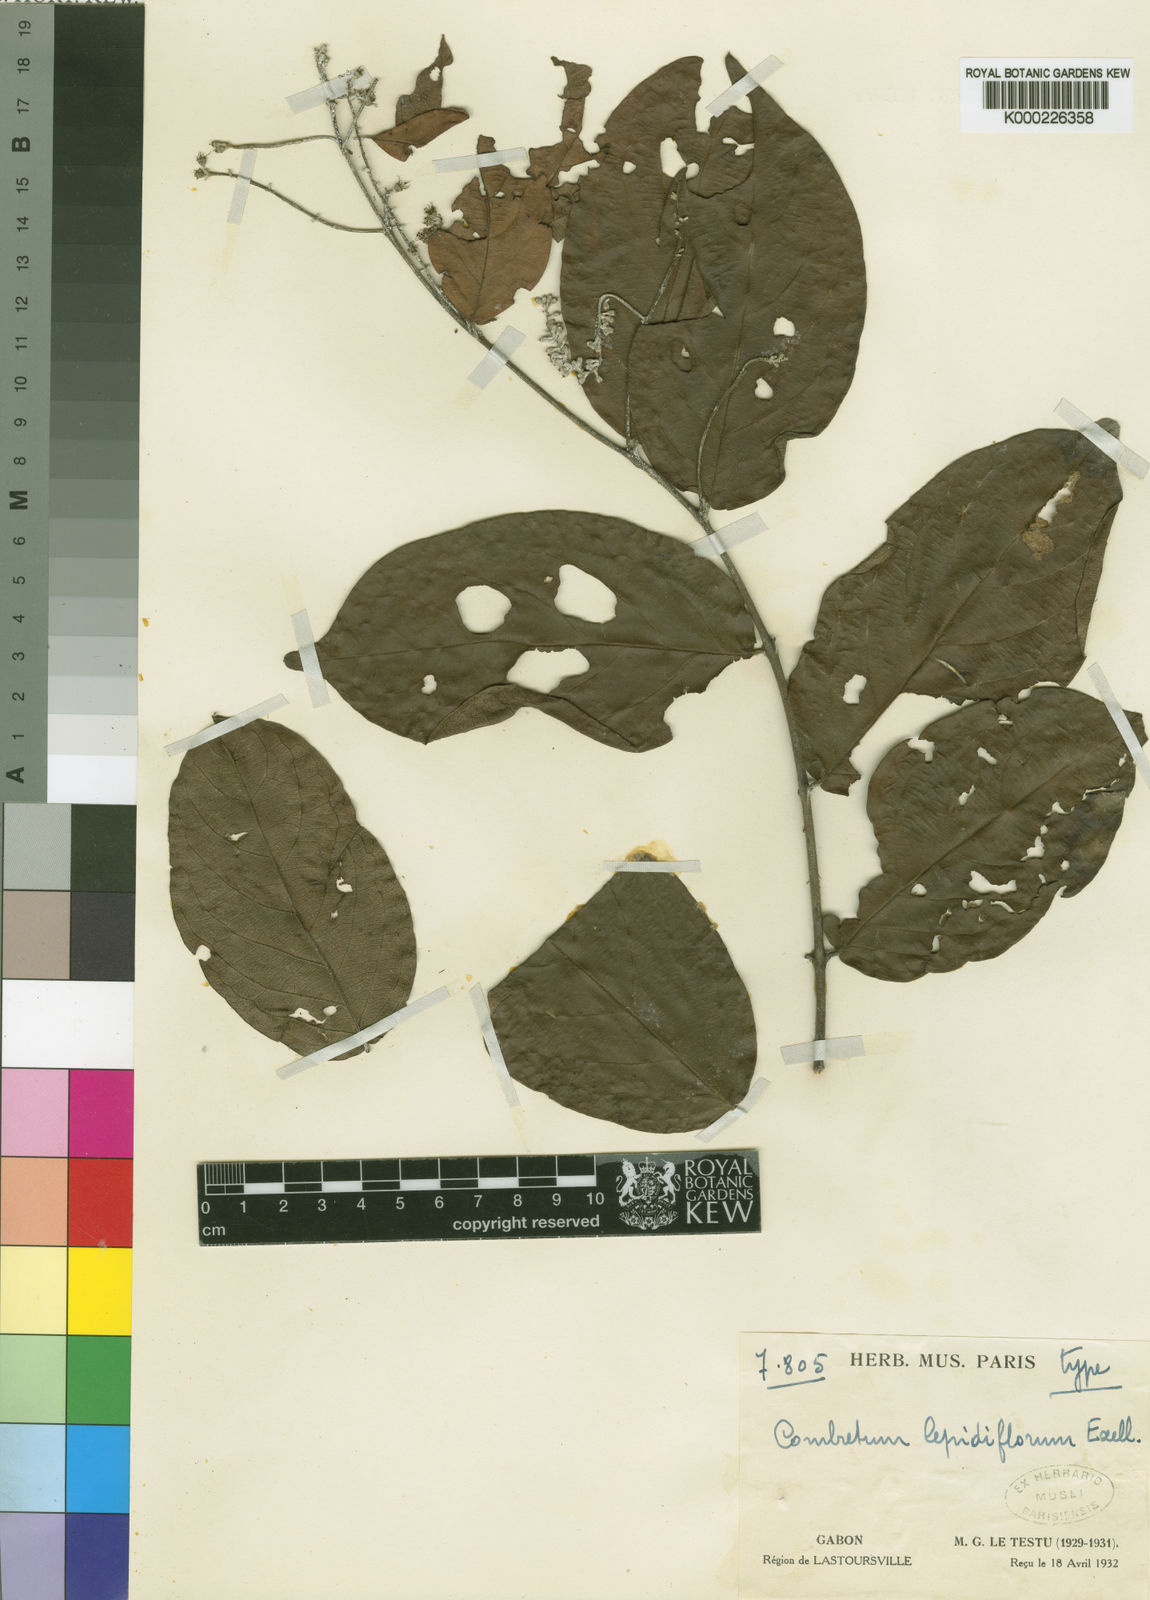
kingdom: Plantae
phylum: Tracheophyta
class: Magnoliopsida
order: Myrtales
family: Combretaceae
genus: Combretum
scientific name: Combretum longipilosum
